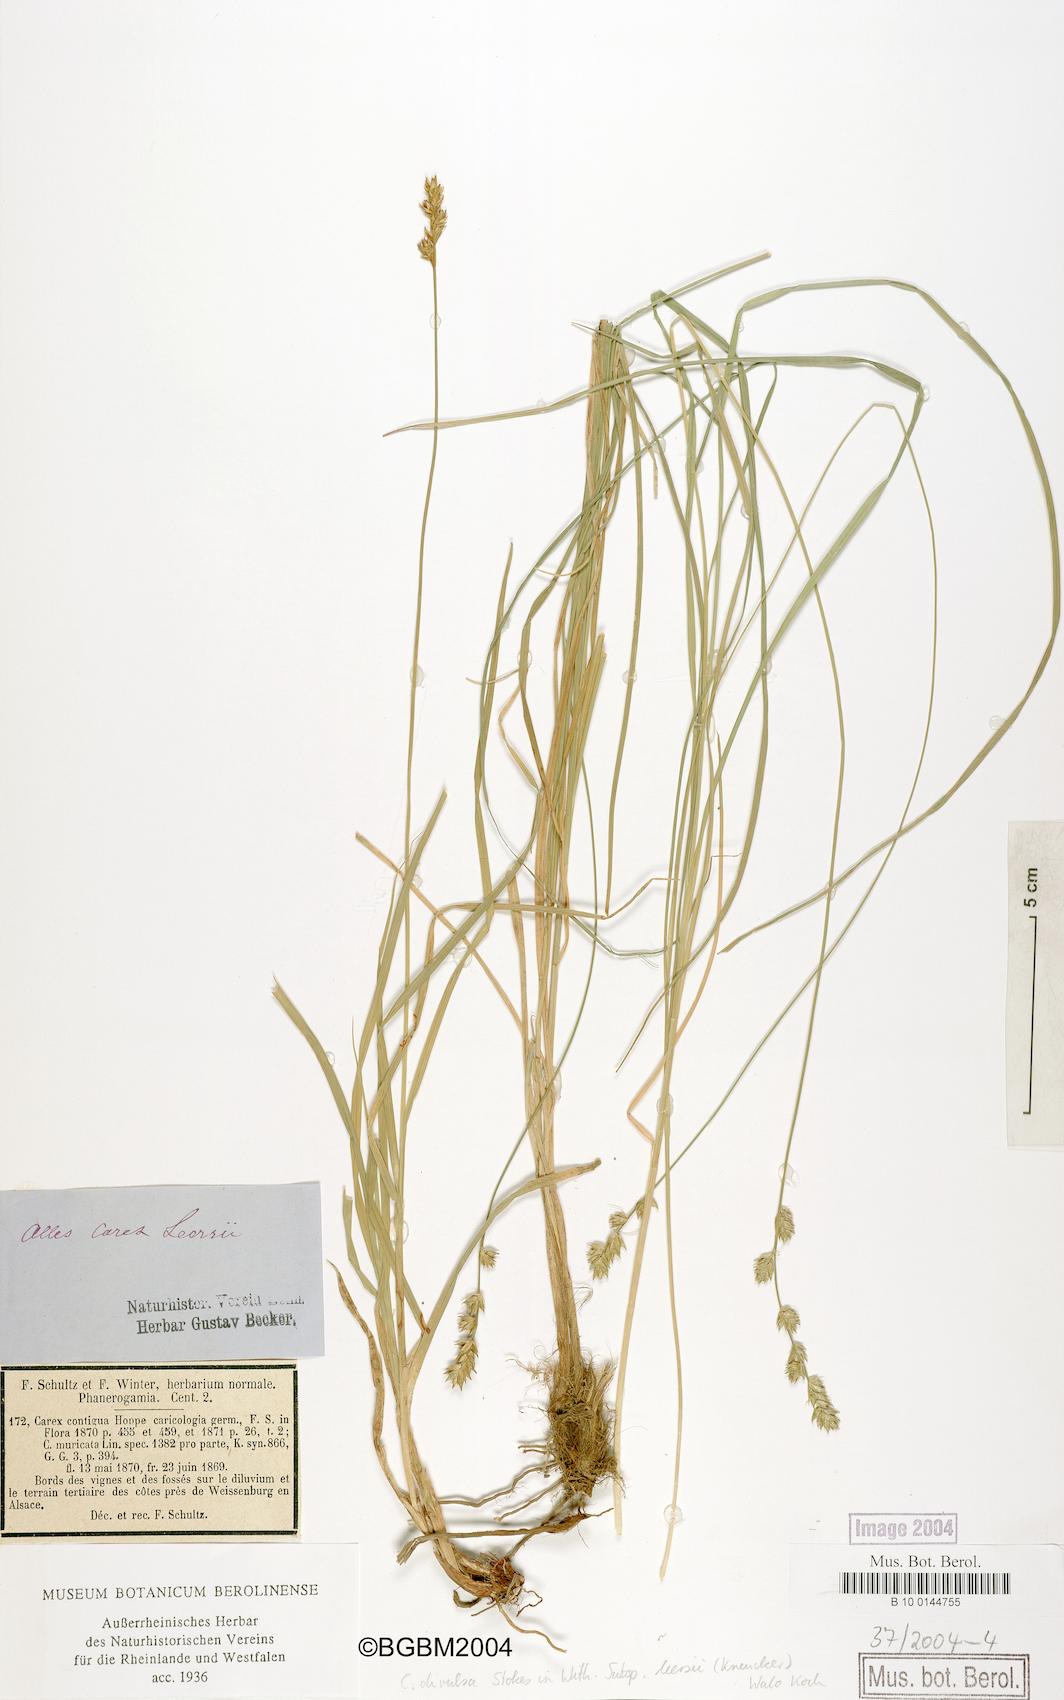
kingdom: Plantae
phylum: Tracheophyta
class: Liliopsida
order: Poales
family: Cyperaceae
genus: Carex
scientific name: Carex leersii
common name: Leers' sedge
